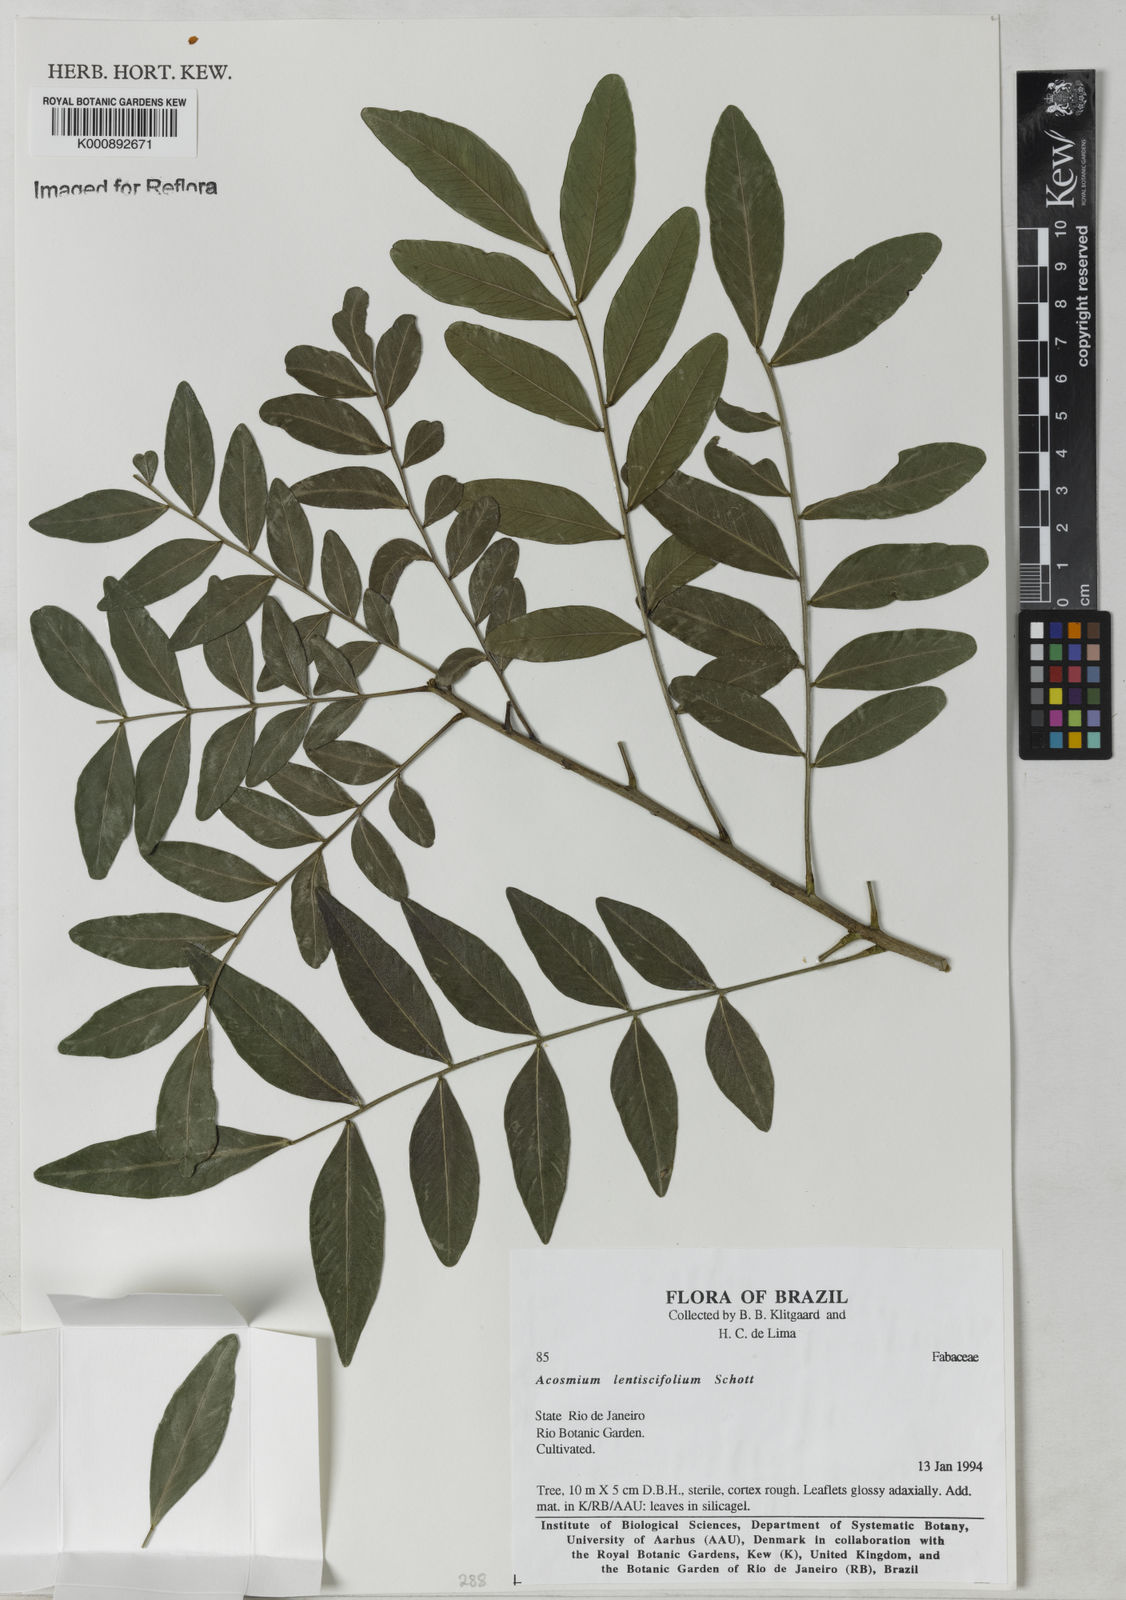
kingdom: Plantae
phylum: Tracheophyta
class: Magnoliopsida
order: Fabales
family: Fabaceae
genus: Acosmium
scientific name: Acosmium lentiscifolium
